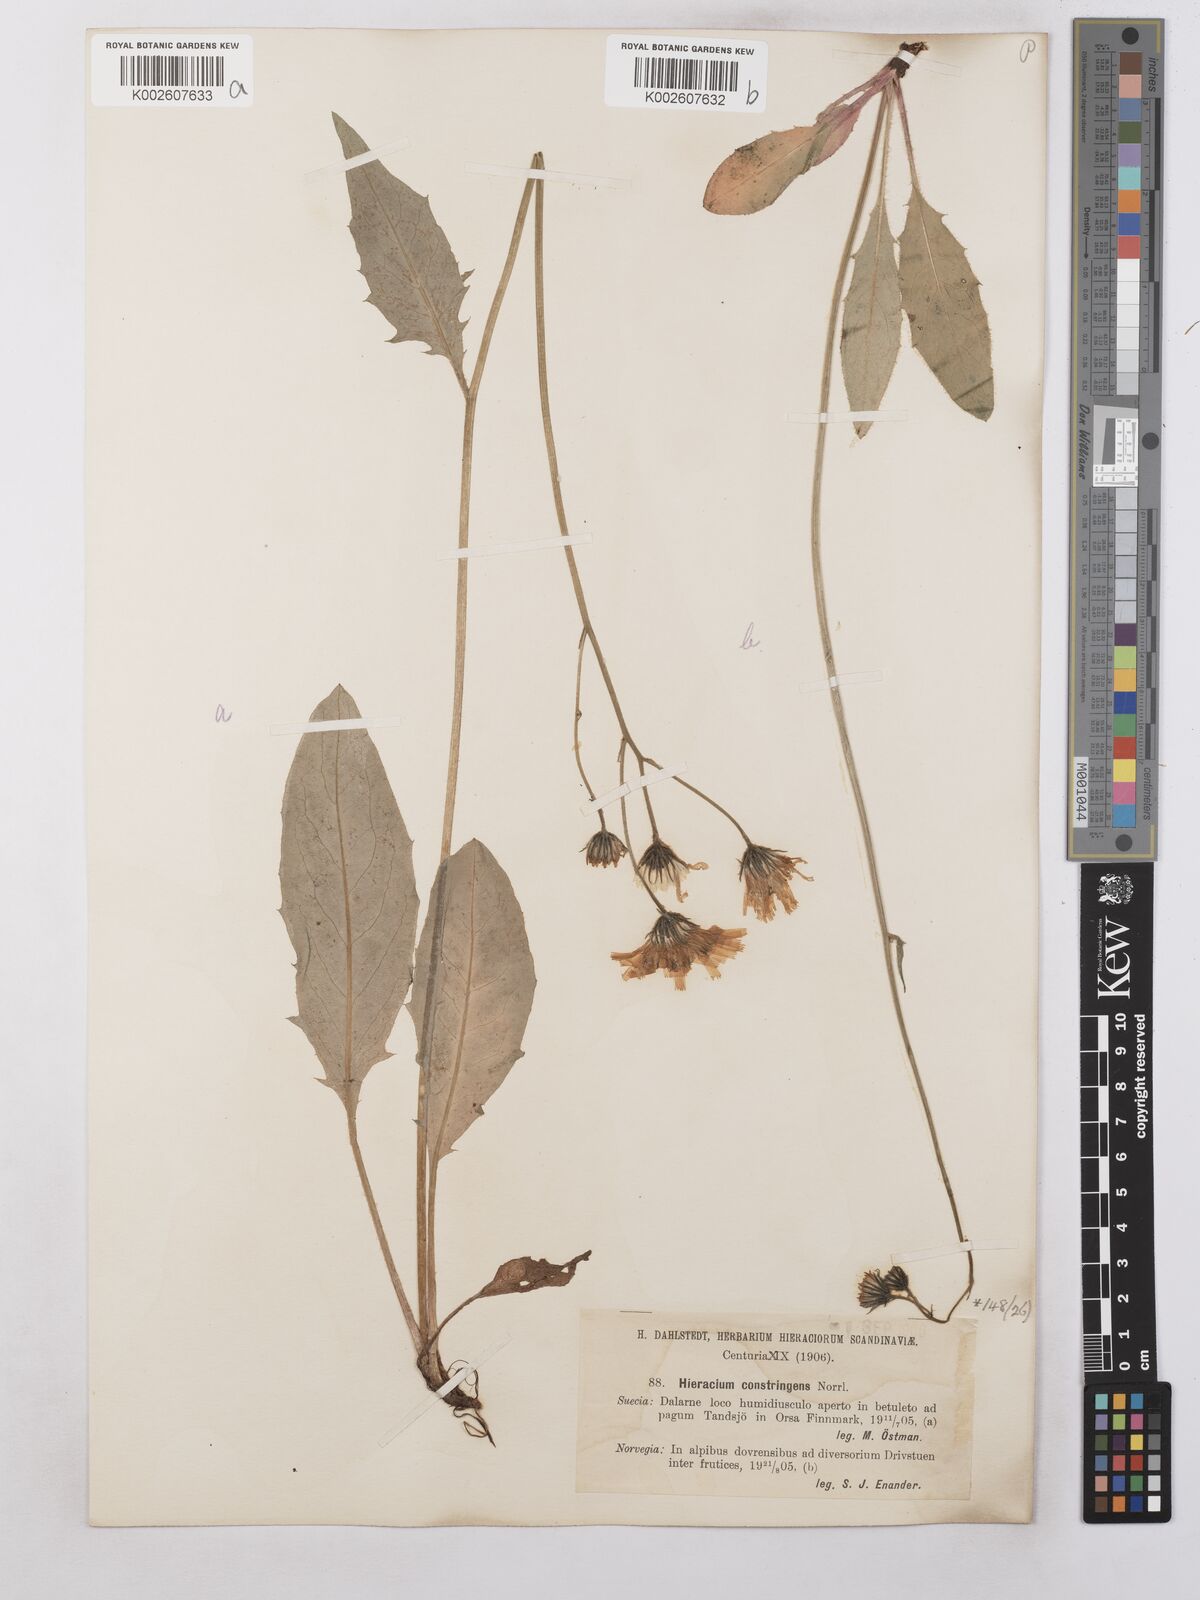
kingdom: Plantae
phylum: Tracheophyta
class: Magnoliopsida
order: Asterales
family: Asteraceae
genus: Hieracium
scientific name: Hieracium subramosum
